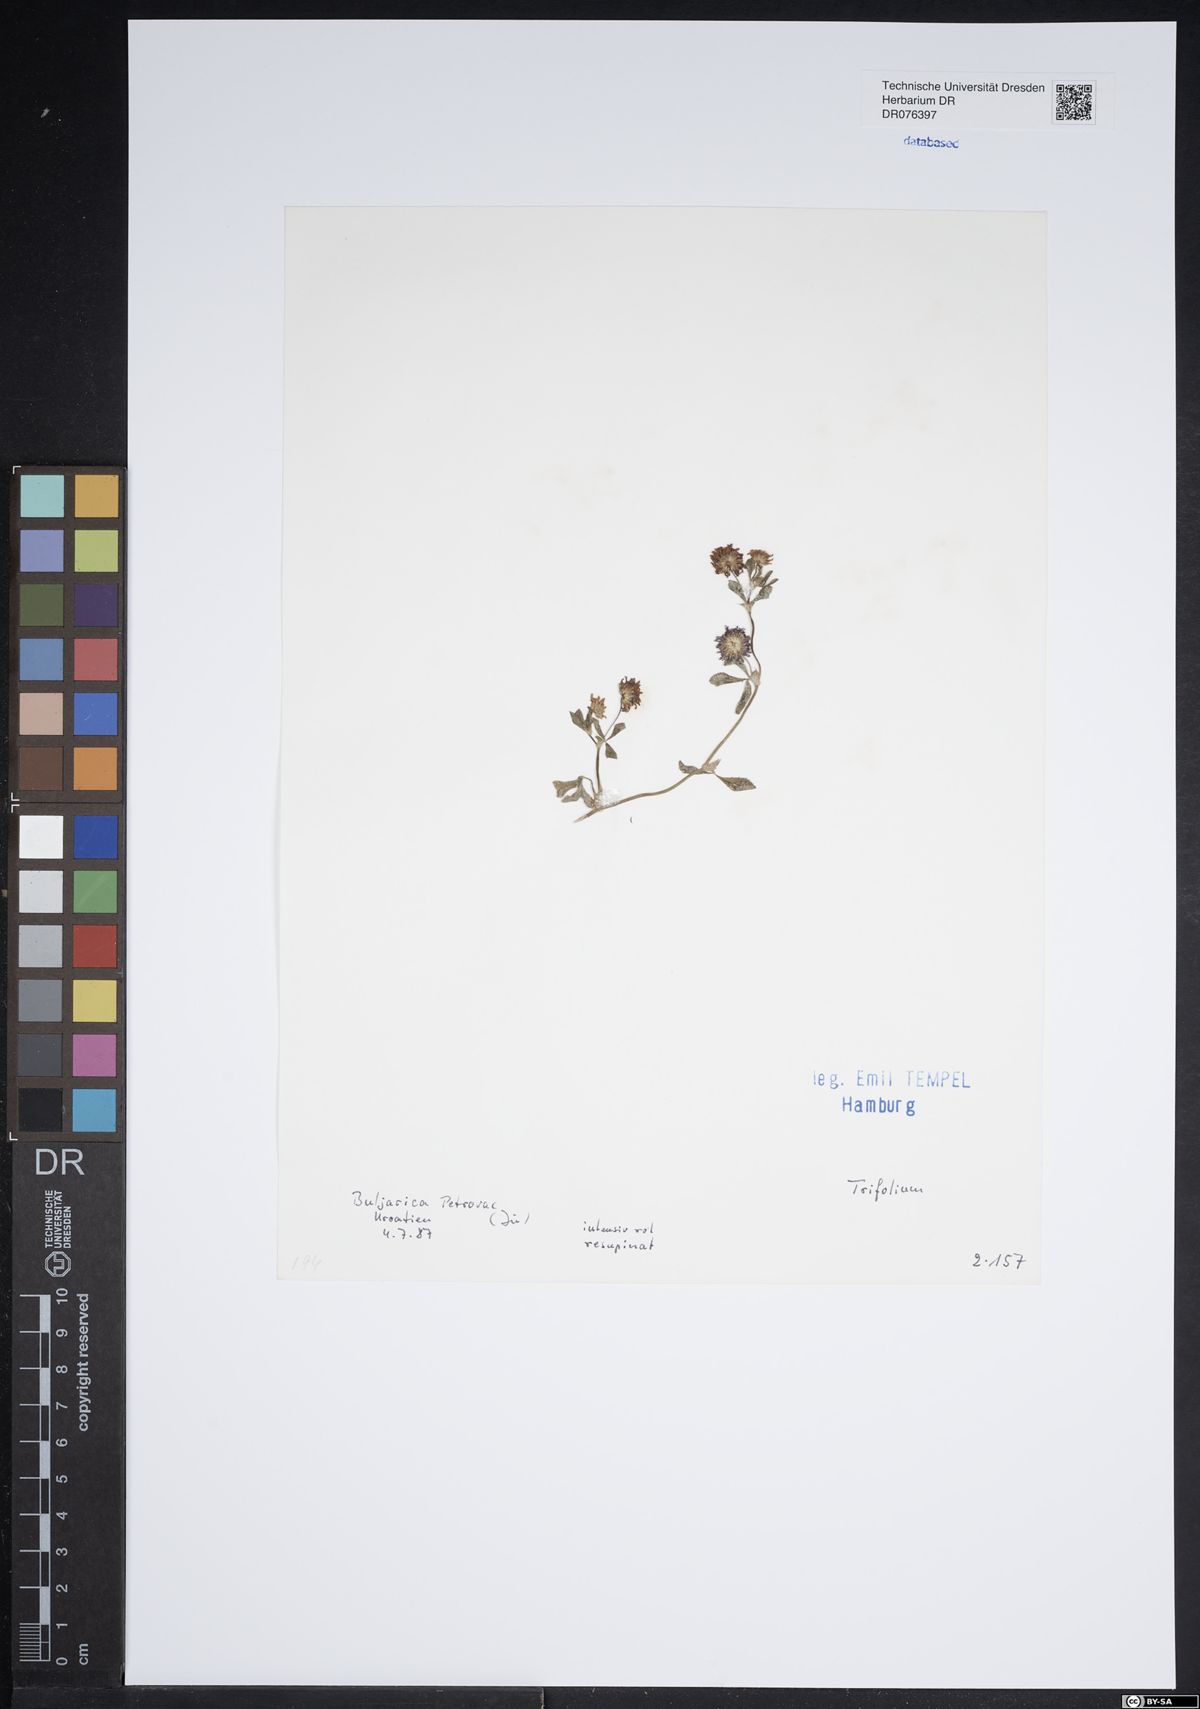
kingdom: Plantae
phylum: Tracheophyta
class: Magnoliopsida
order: Fabales
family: Fabaceae
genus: Trifolium
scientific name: Trifolium
